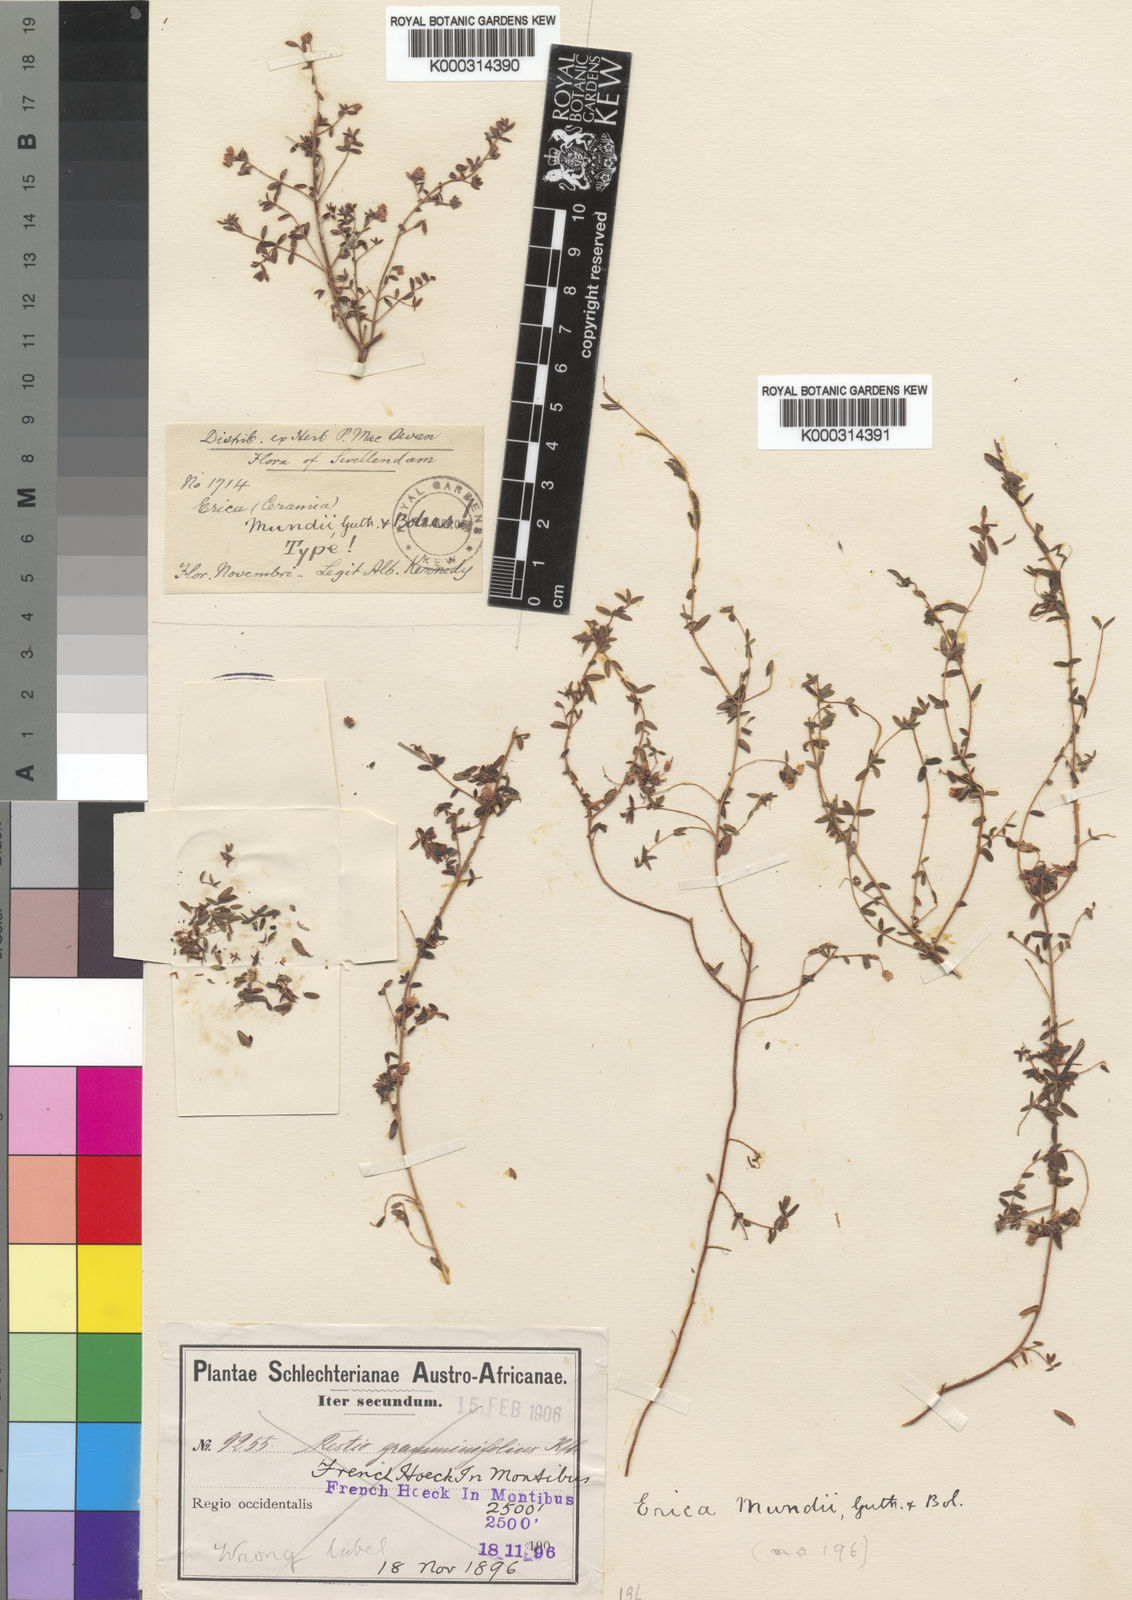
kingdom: Plantae
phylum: Tracheophyta
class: Magnoliopsida
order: Ericales
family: Ericaceae
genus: Erica
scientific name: Erica mundii
